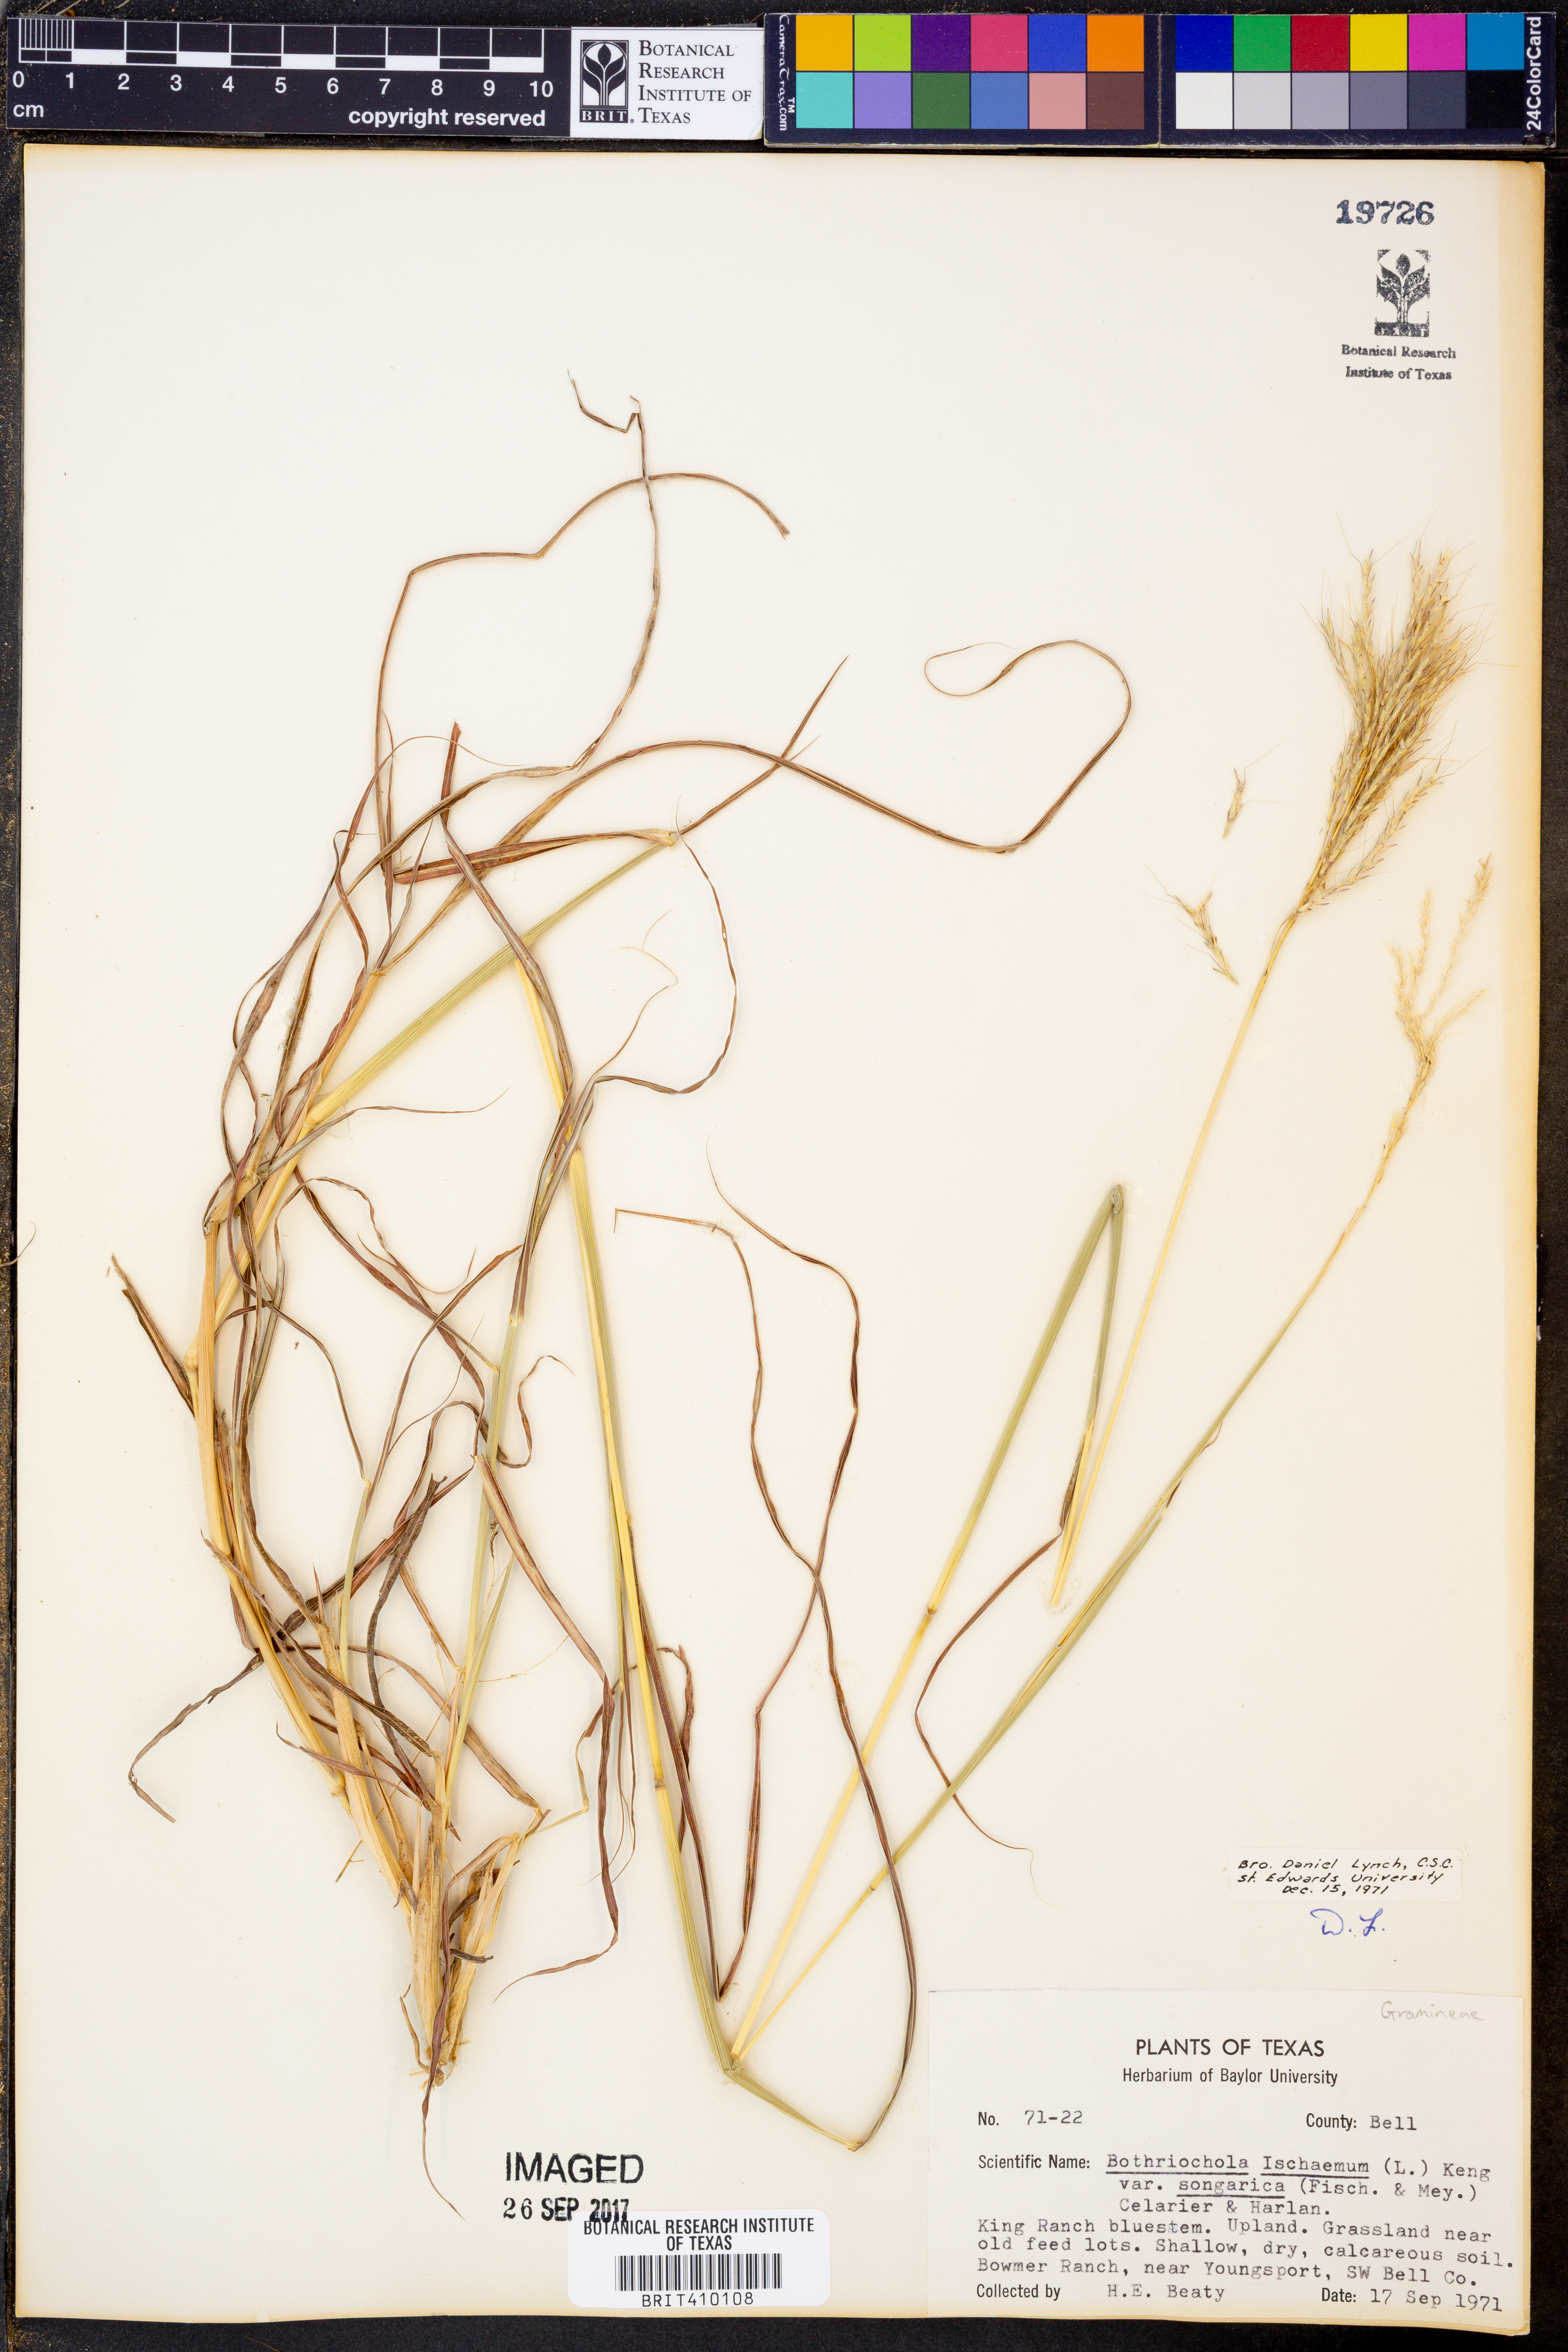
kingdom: Plantae
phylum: Tracheophyta
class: Liliopsida
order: Poales
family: Poaceae
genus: Bothriochloa
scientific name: Bothriochloa ischaemum
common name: Yellow bluestem
